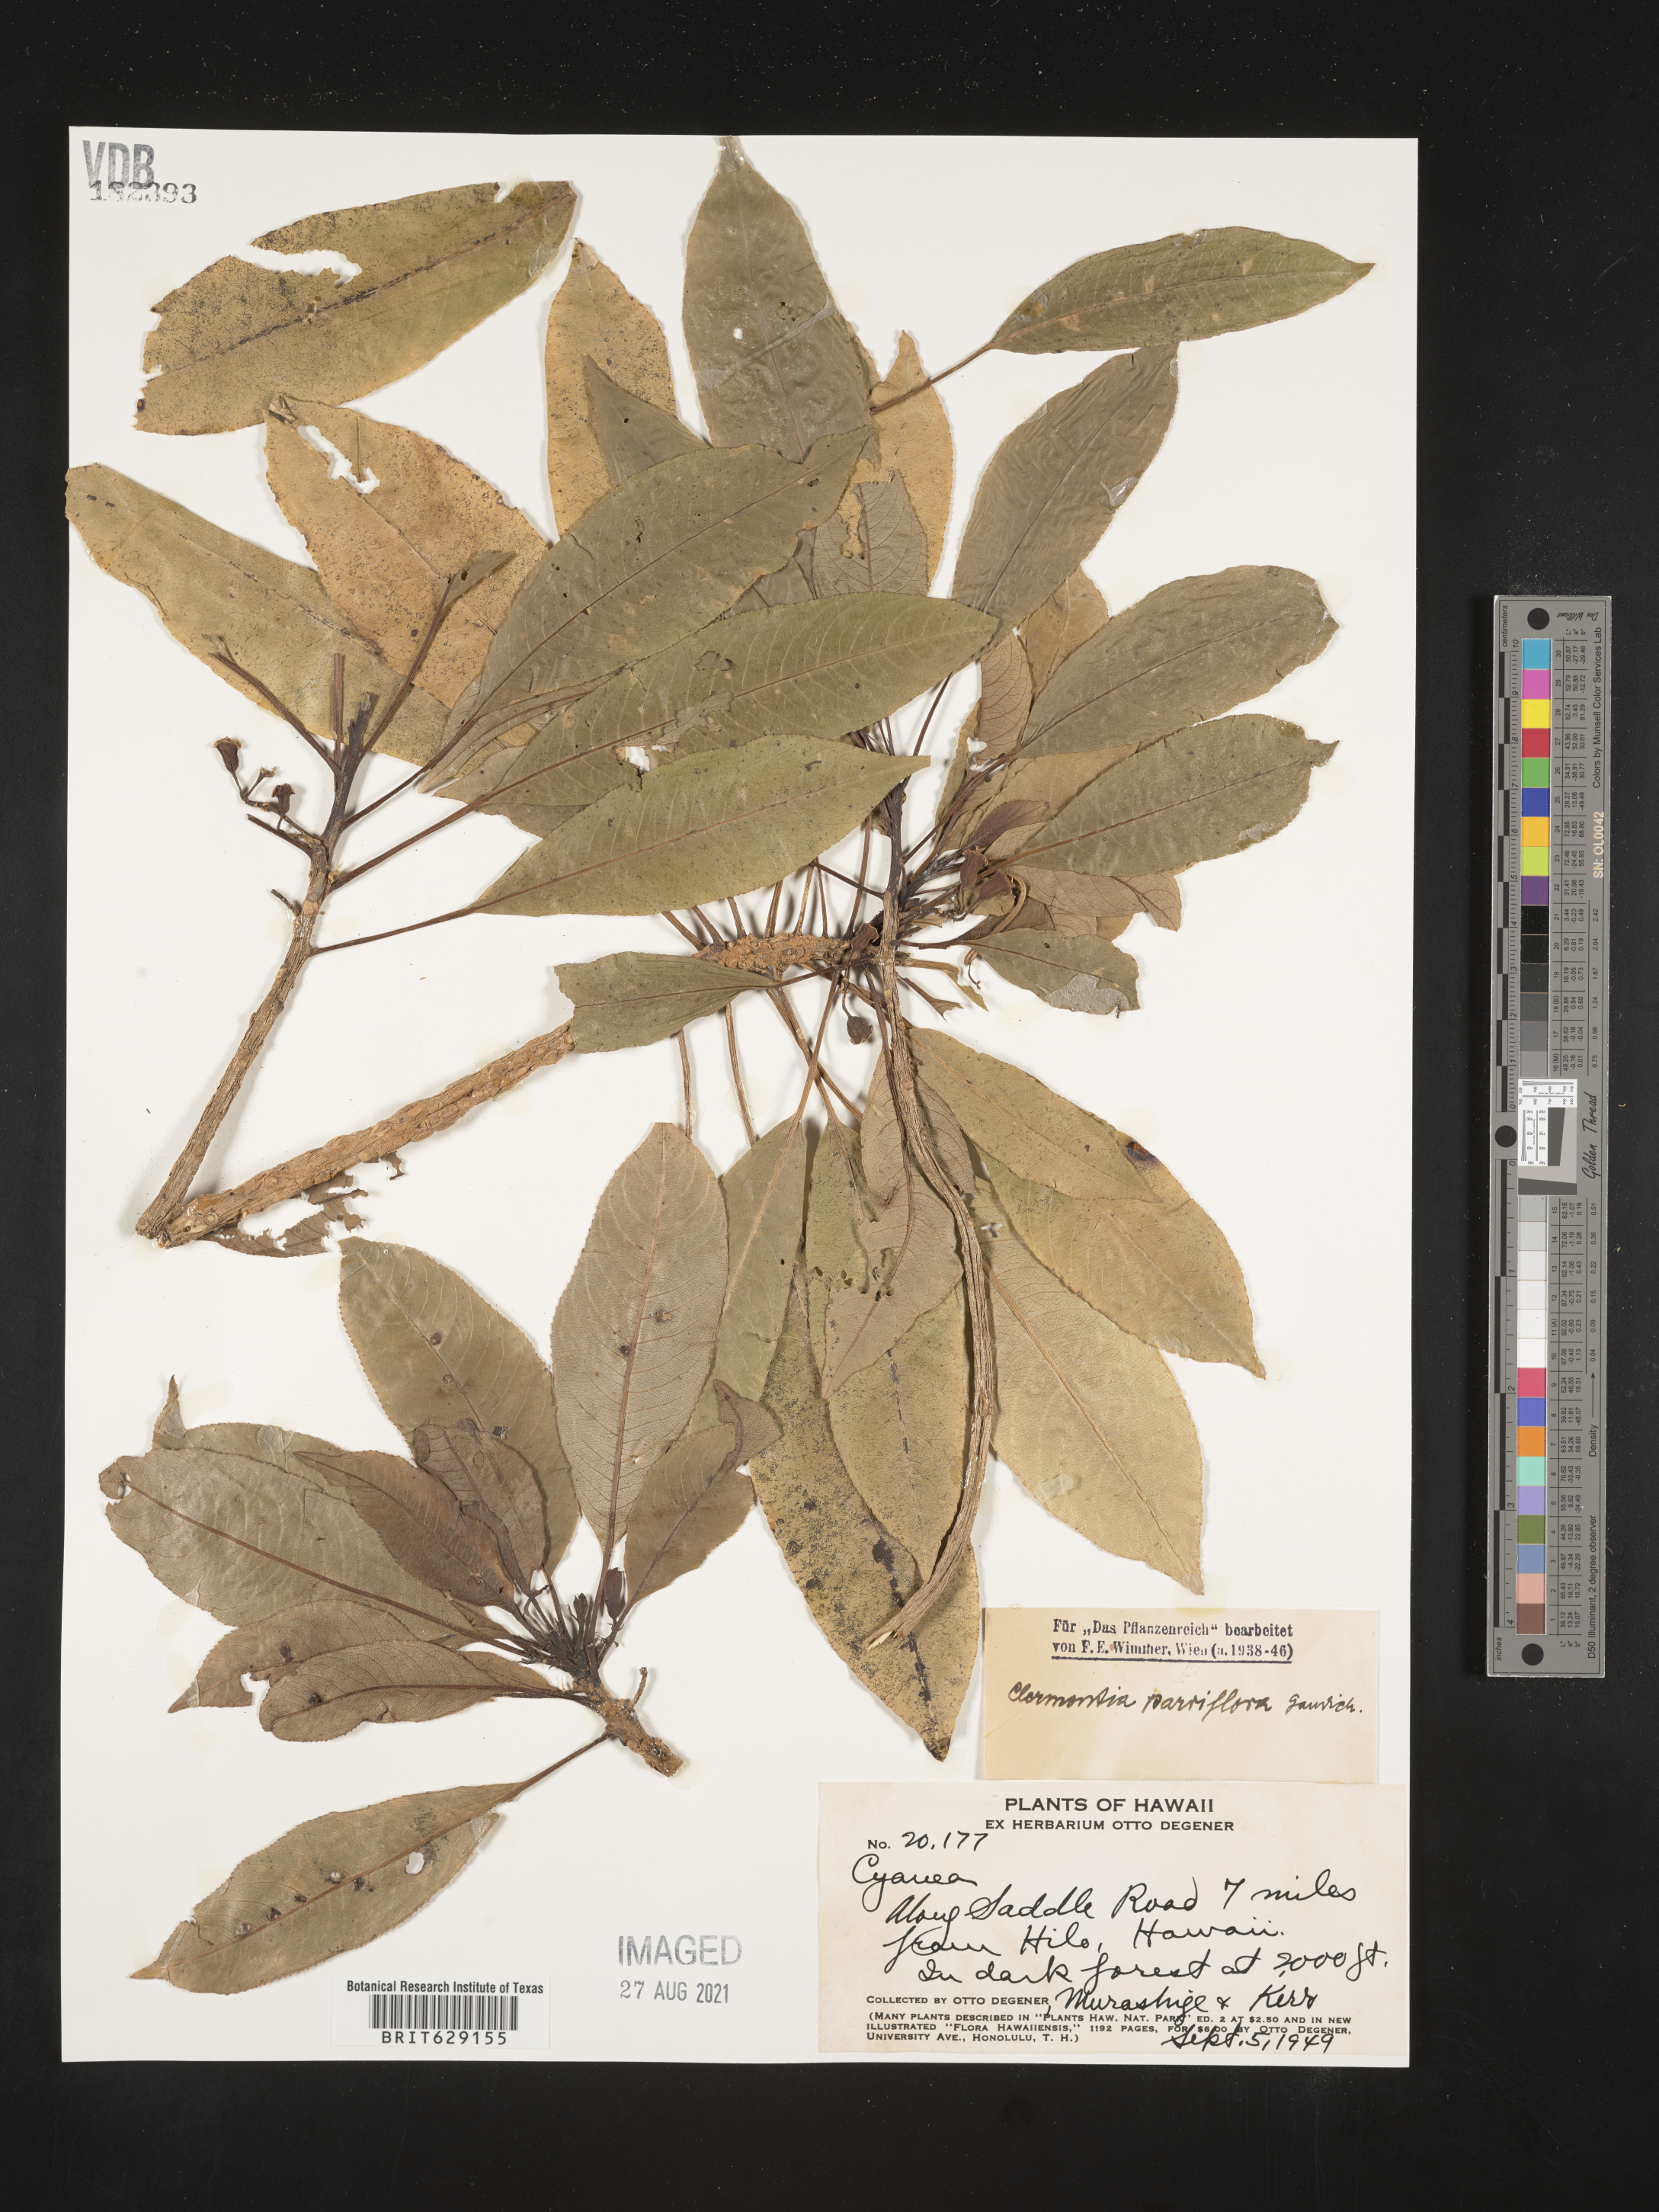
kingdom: Plantae
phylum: Tracheophyta
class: Magnoliopsida
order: Asterales
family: Campanulaceae
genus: Clermontia
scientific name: Clermontia parviflora
